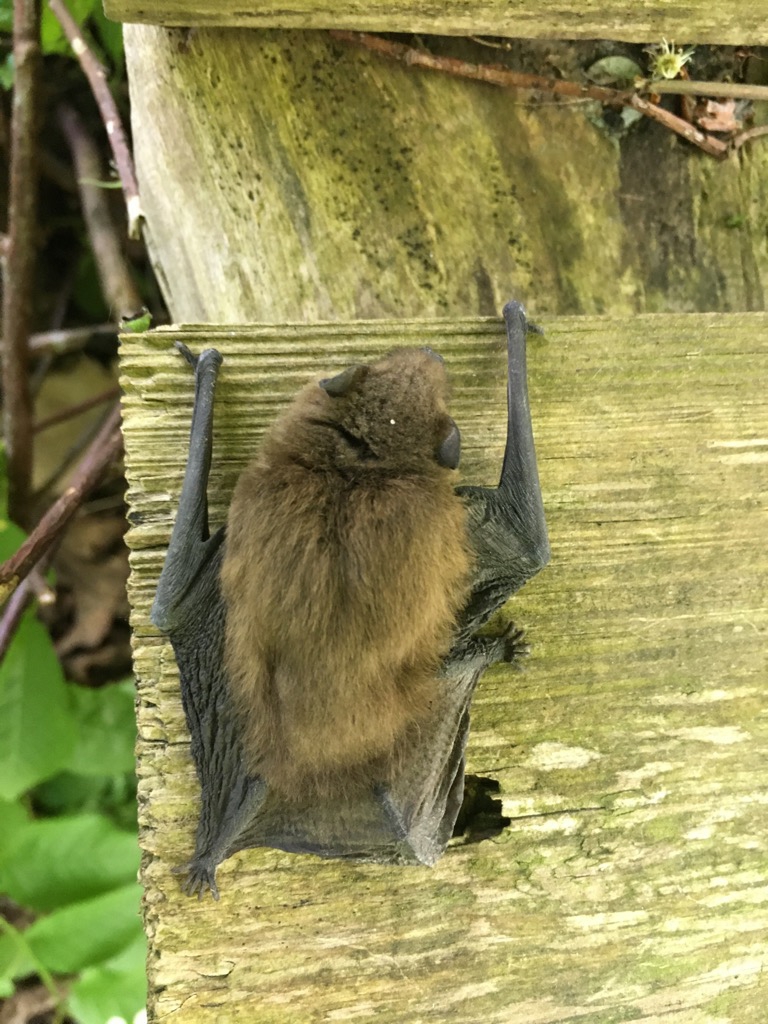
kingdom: Animalia
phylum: Chordata
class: Mammalia
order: Chiroptera
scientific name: Chiroptera
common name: Flagermus
